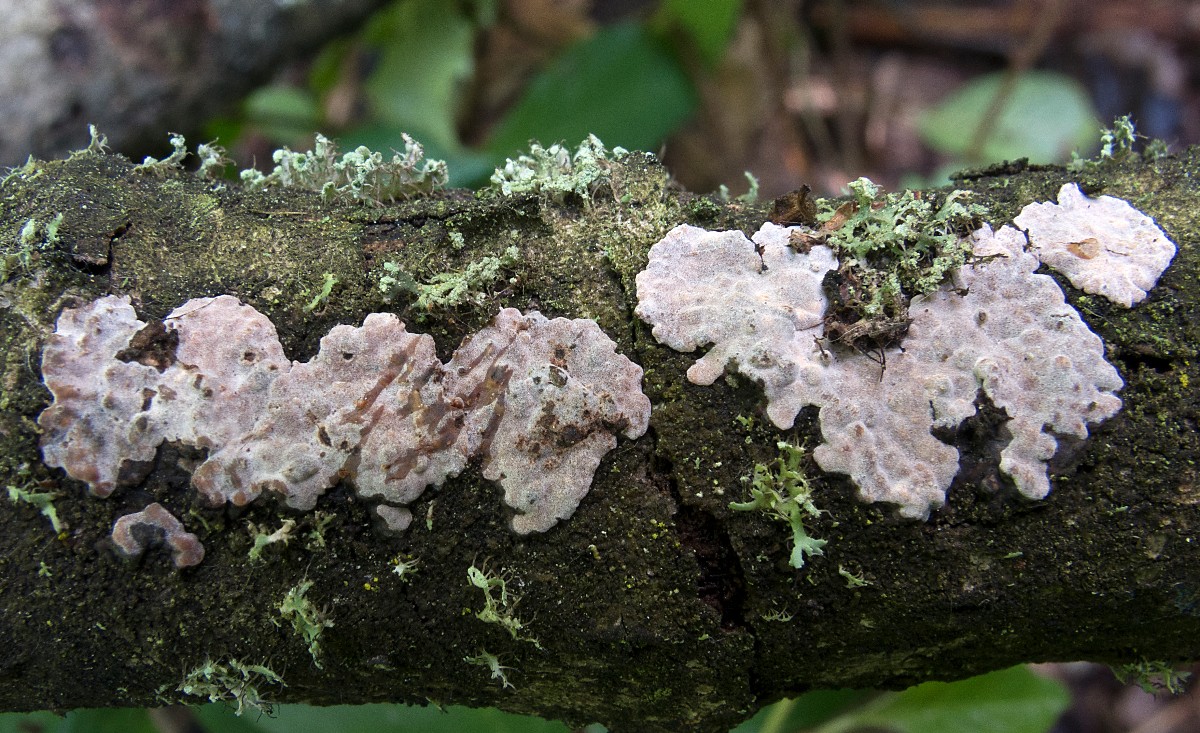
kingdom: Fungi
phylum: Basidiomycota
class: Agaricomycetes
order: Russulales
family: Peniophoraceae
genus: Peniophora
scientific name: Peniophora polygonia
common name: polygon-voksskind
